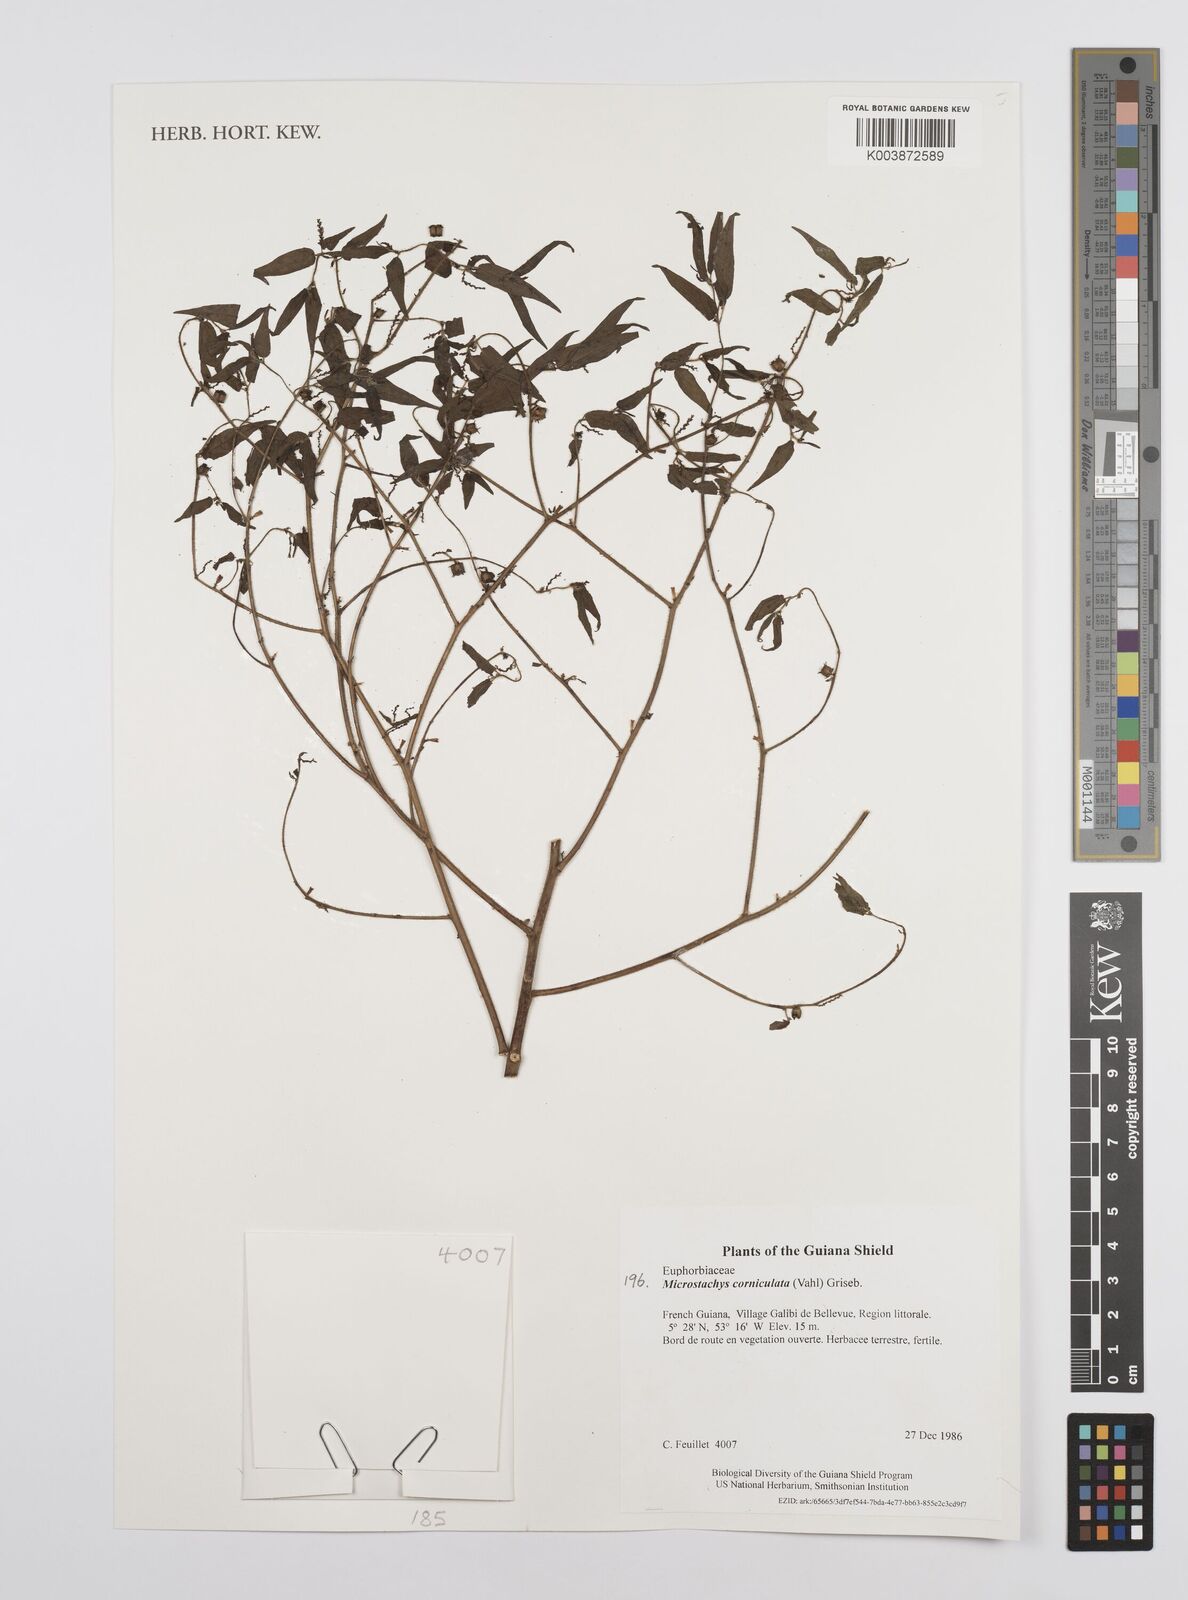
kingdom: Plantae
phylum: Tracheophyta
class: Magnoliopsida
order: Malpighiales
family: Euphorbiaceae
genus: Microstachys
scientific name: Microstachys corniculata
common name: Hato tejas
